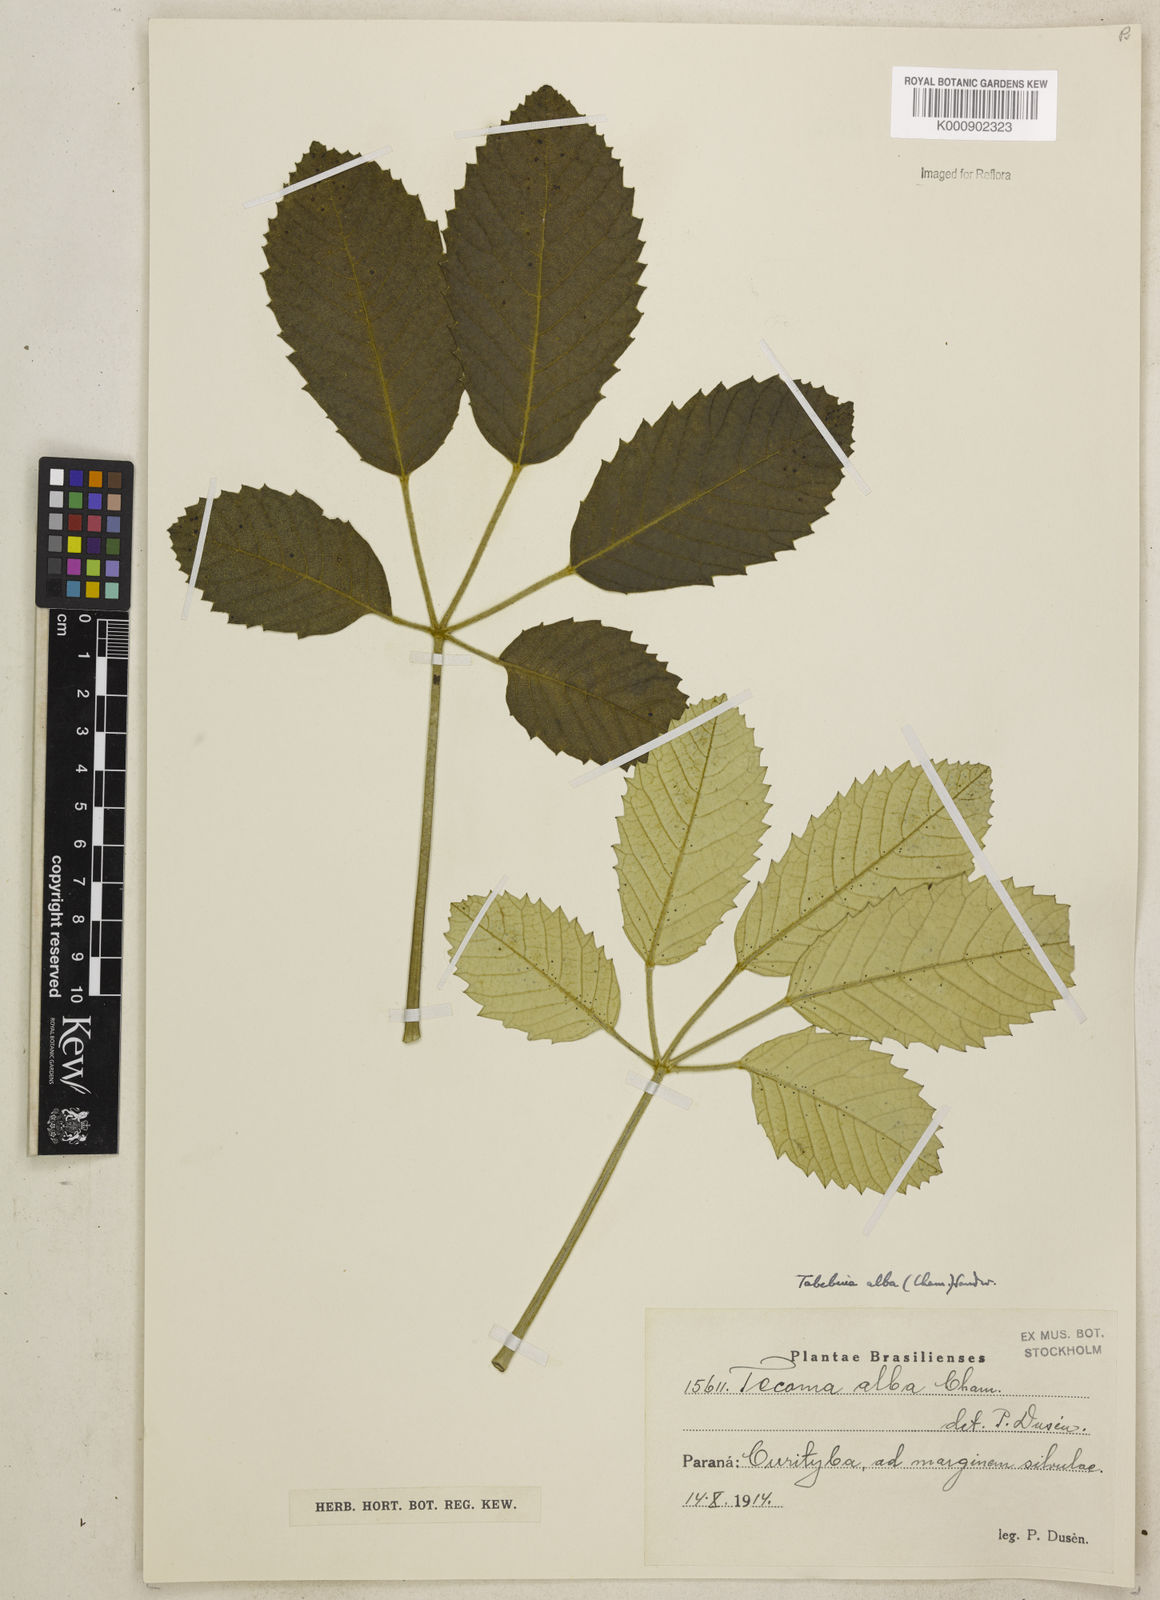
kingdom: Plantae
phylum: Tracheophyta
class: Magnoliopsida
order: Lamiales
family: Bignoniaceae
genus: Handroanthus
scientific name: Handroanthus albus
